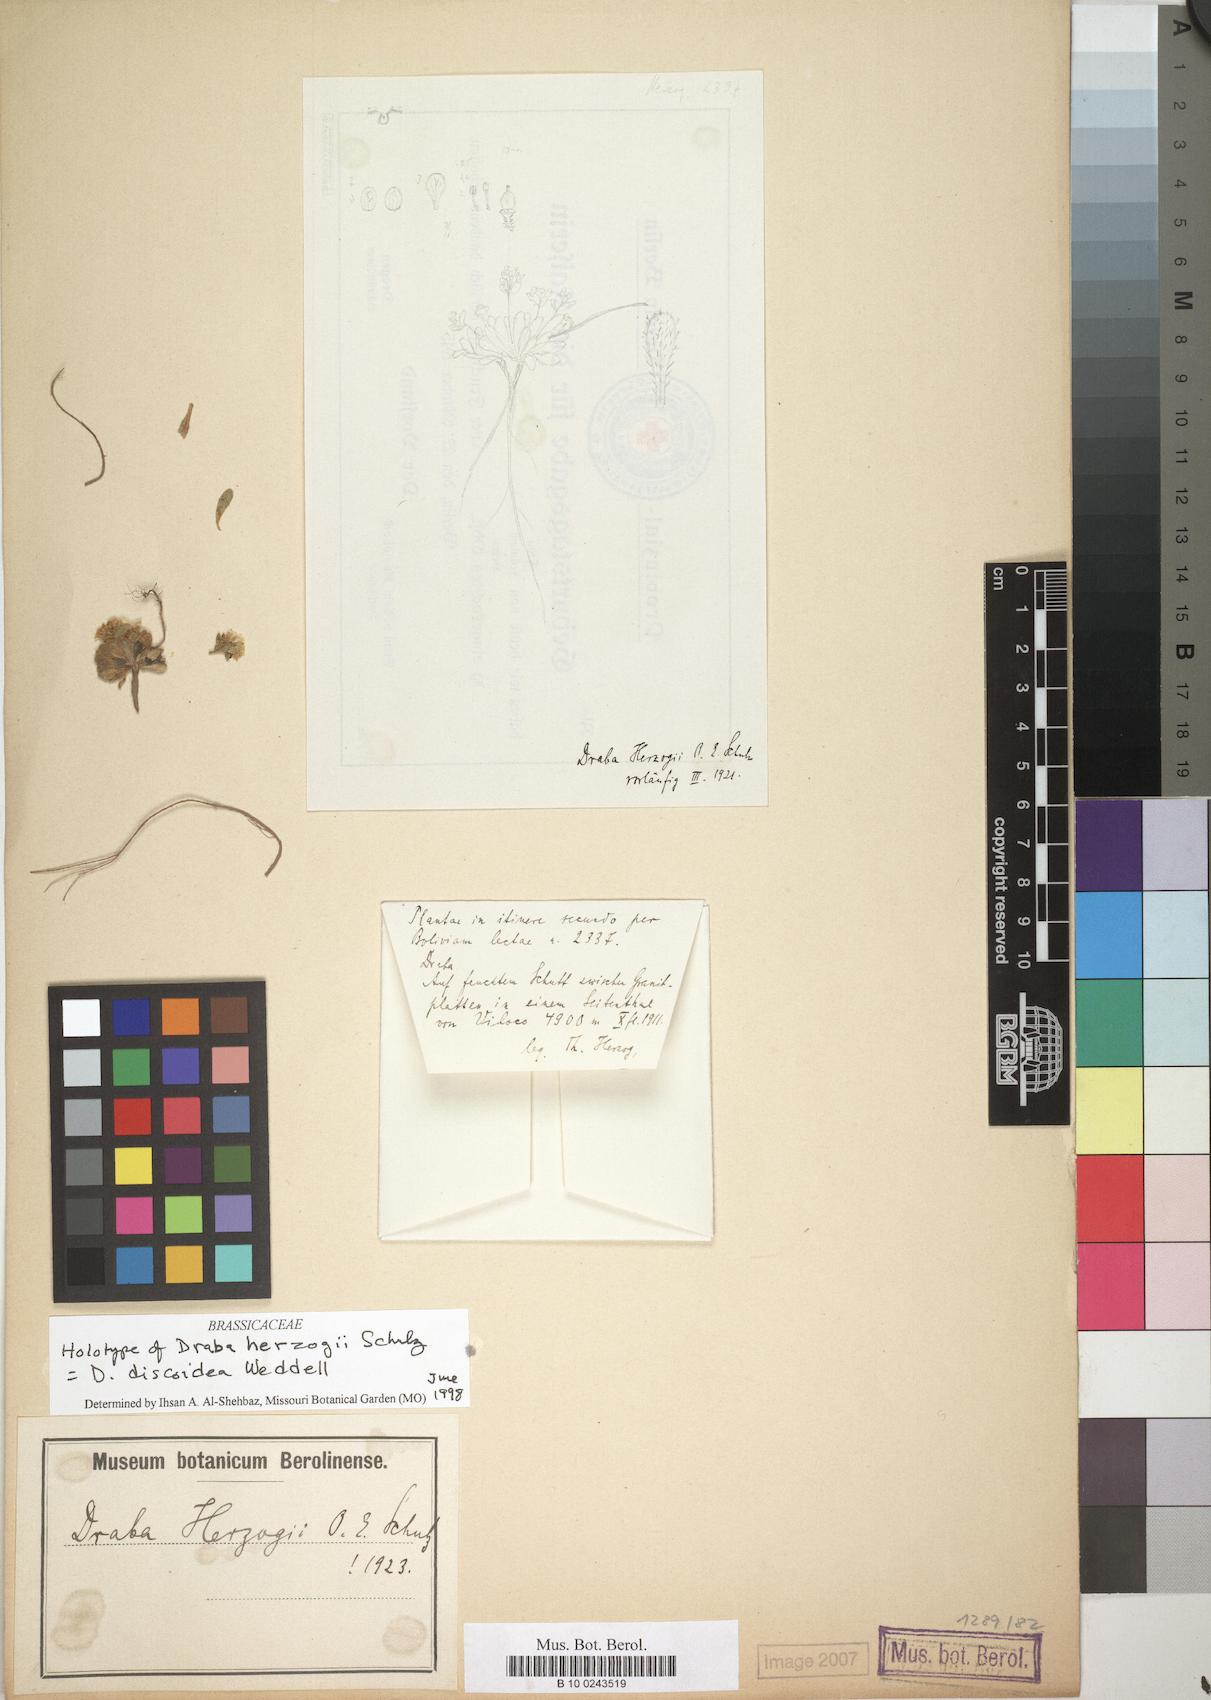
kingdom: Plantae
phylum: Tracheophyta
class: Magnoliopsida
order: Brassicales
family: Brassicaceae
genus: Draba
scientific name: Draba discoidea
